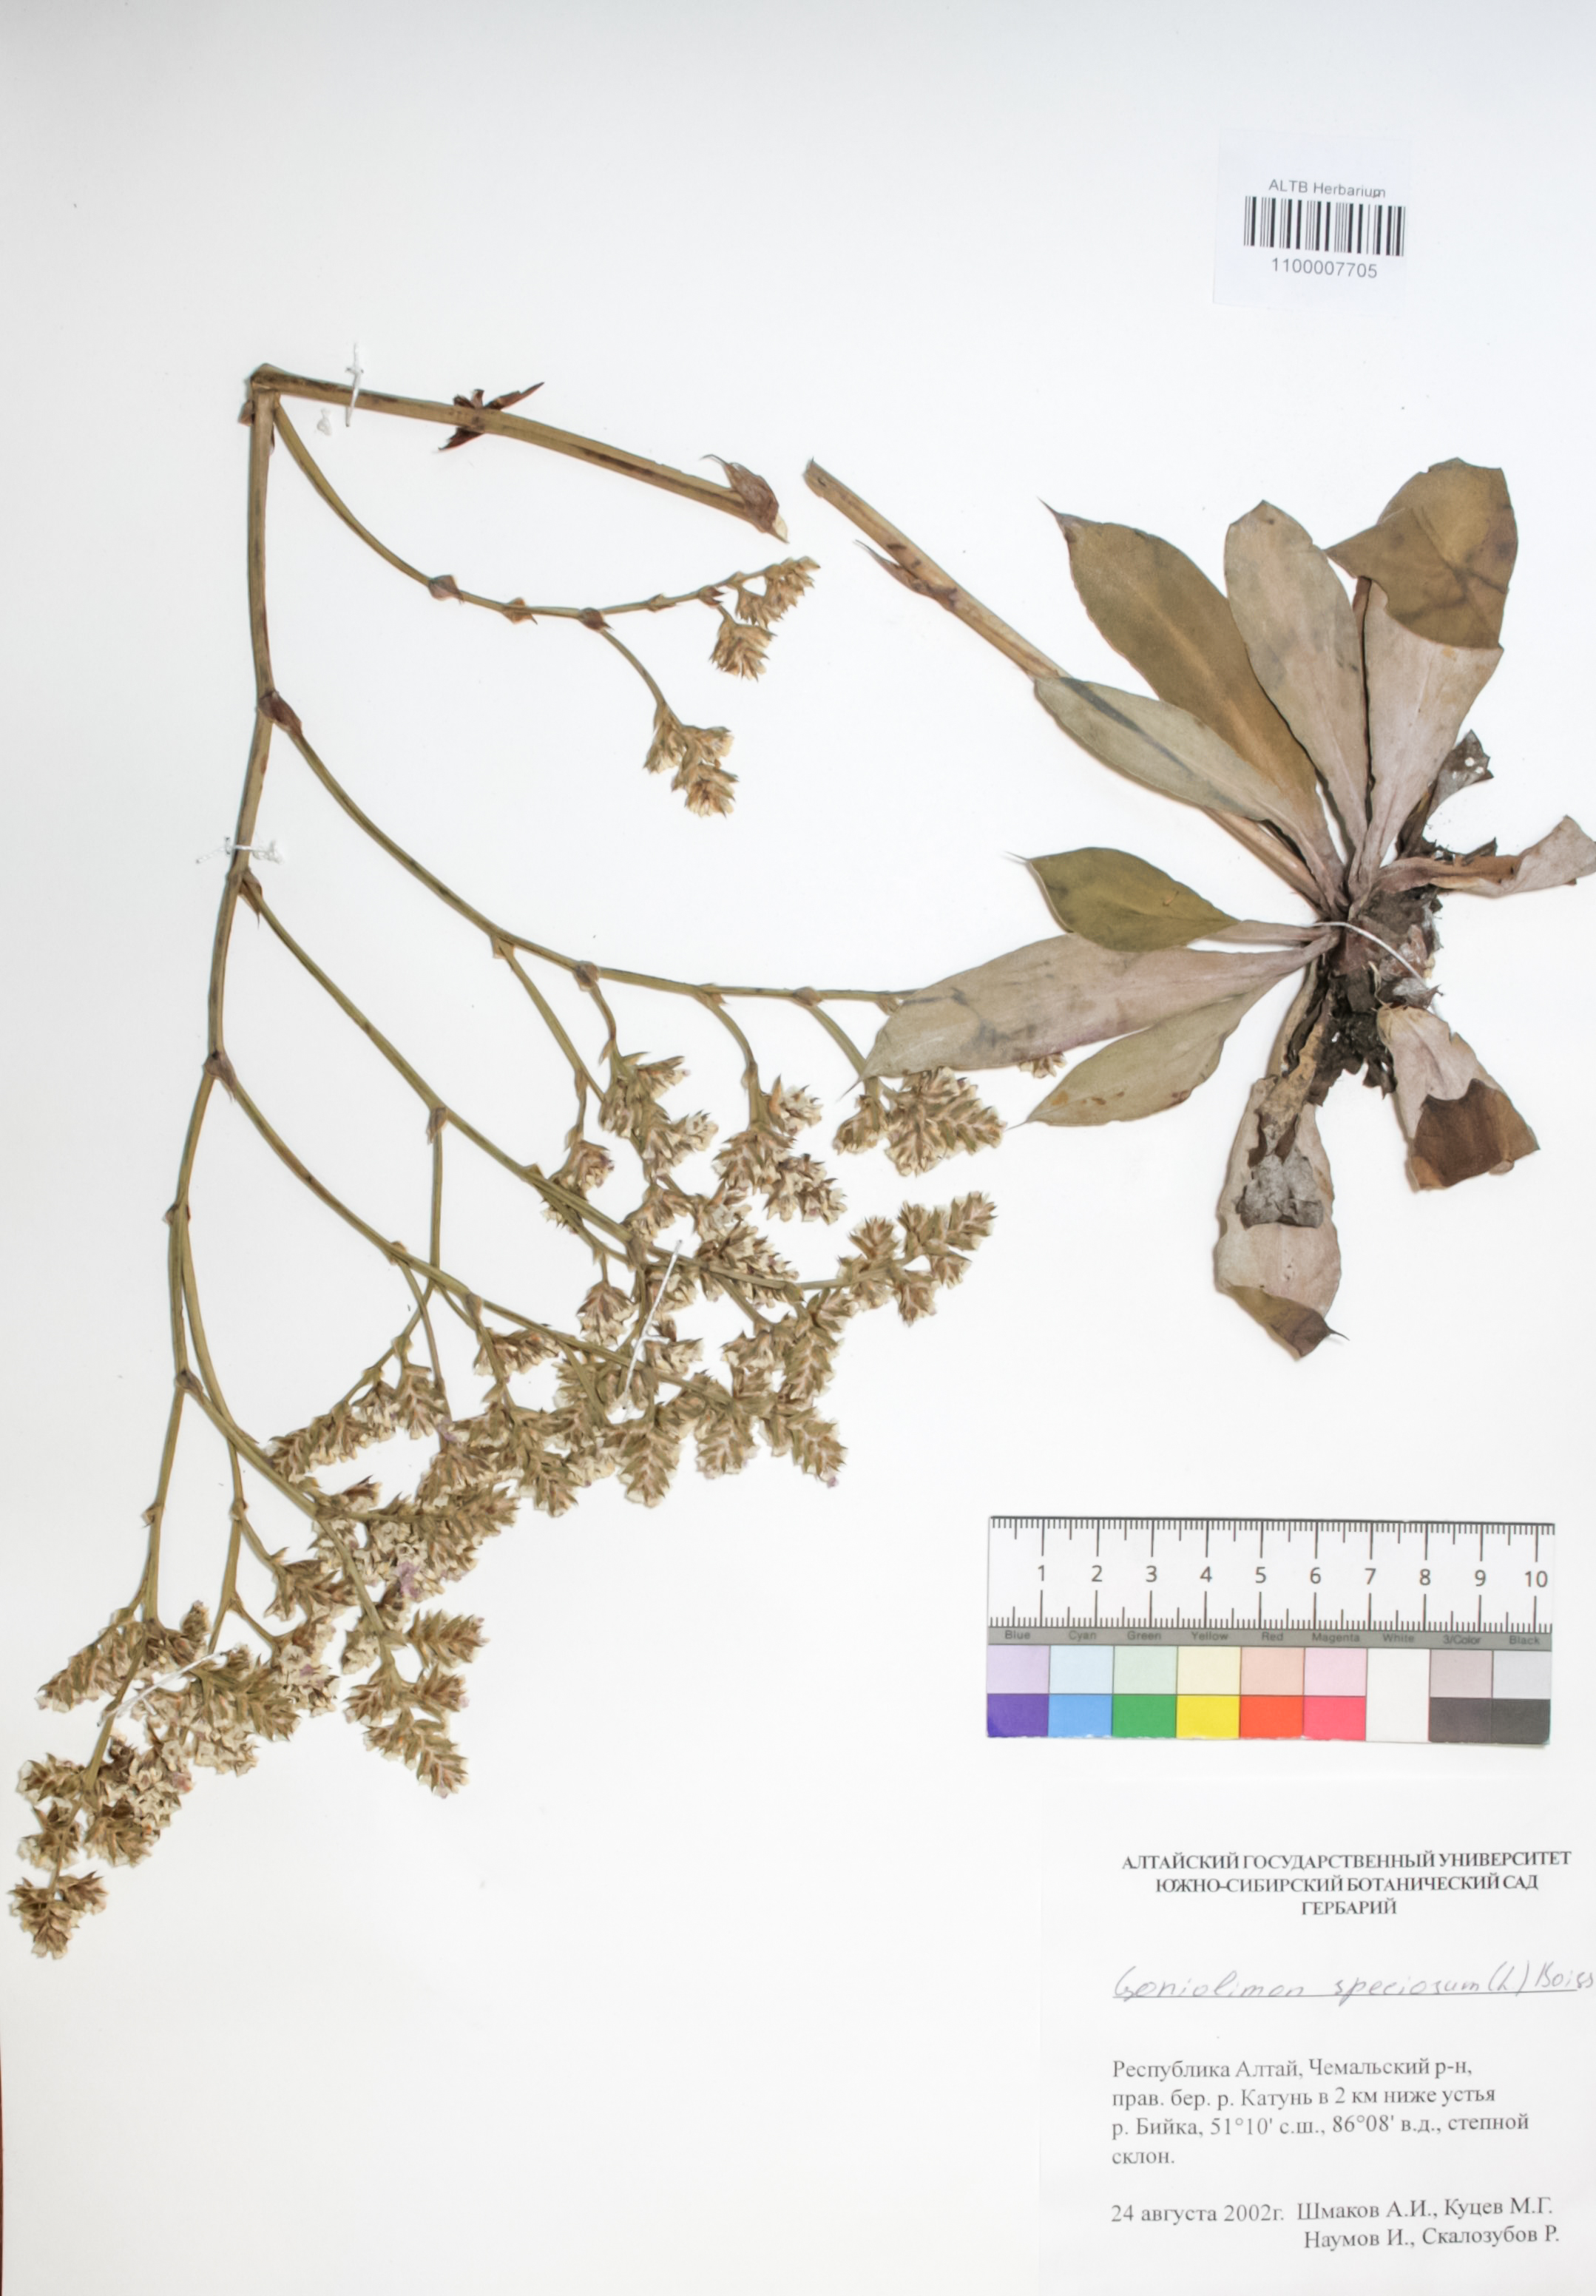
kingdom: Plantae
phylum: Tracheophyta
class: Magnoliopsida
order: Caryophyllales
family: Plumbaginaceae
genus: Goniolimon
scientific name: Goniolimon speciosum
